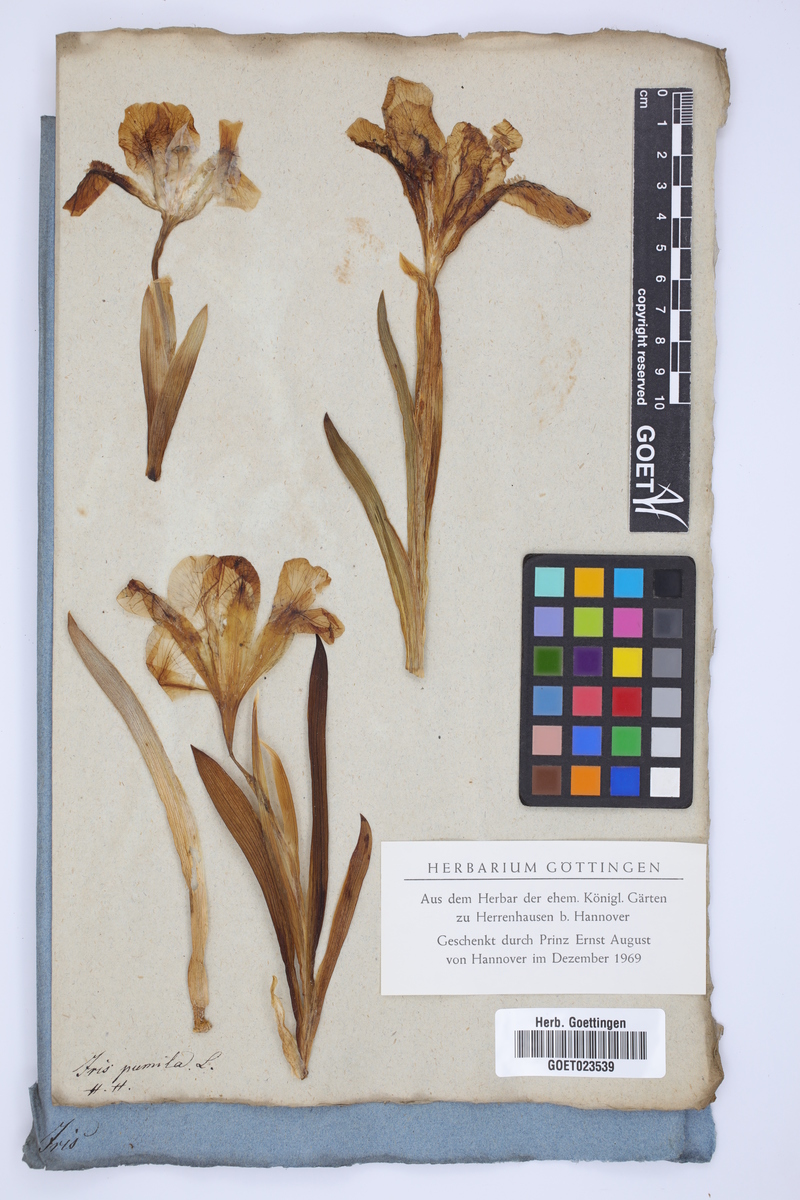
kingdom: Plantae
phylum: Tracheophyta
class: Liliopsida
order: Asparagales
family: Iridaceae
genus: Iris
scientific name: Iris pumila
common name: Dwarf iris
